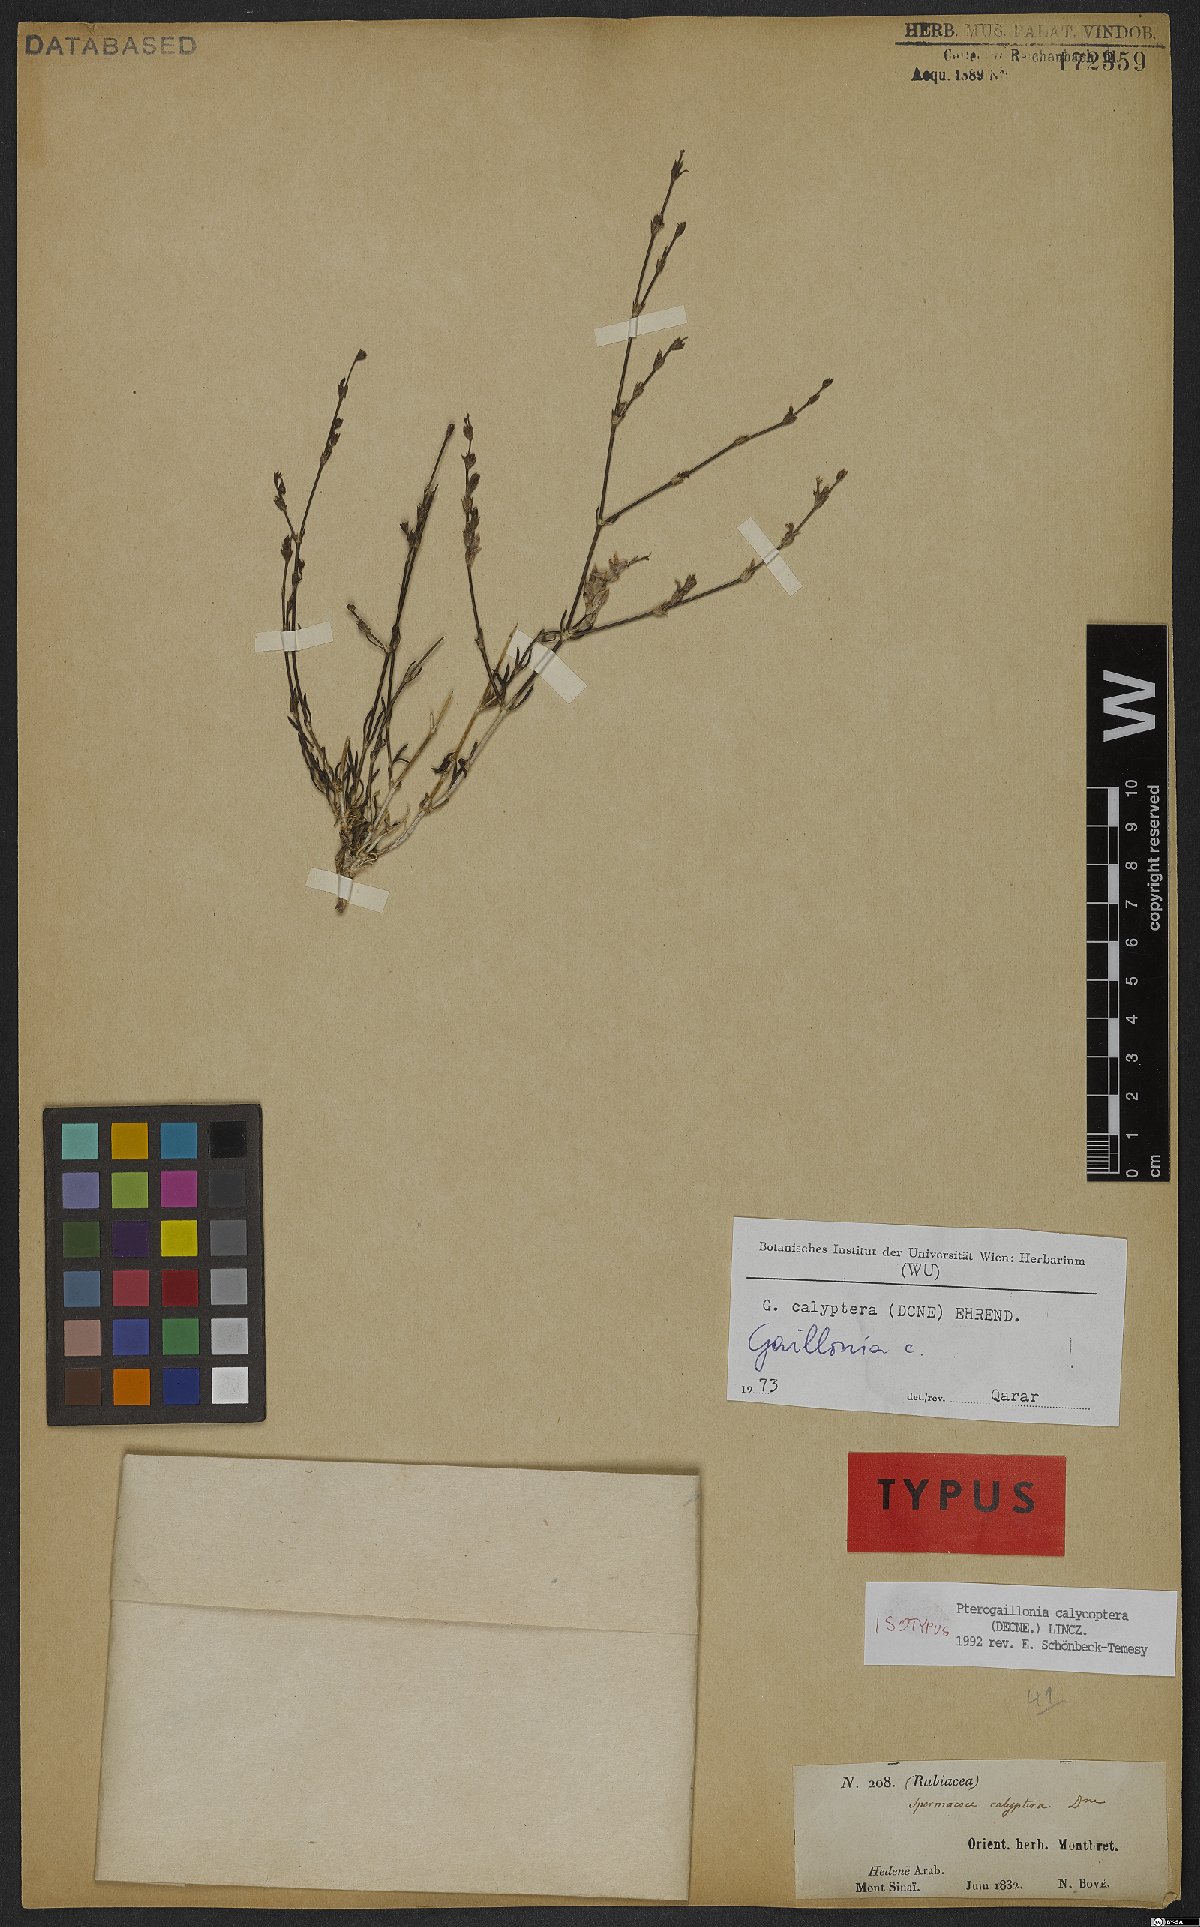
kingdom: Plantae
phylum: Tracheophyta
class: Magnoliopsida
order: Gentianales
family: Rubiaceae
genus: Plocama
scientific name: Plocama calycoptera
